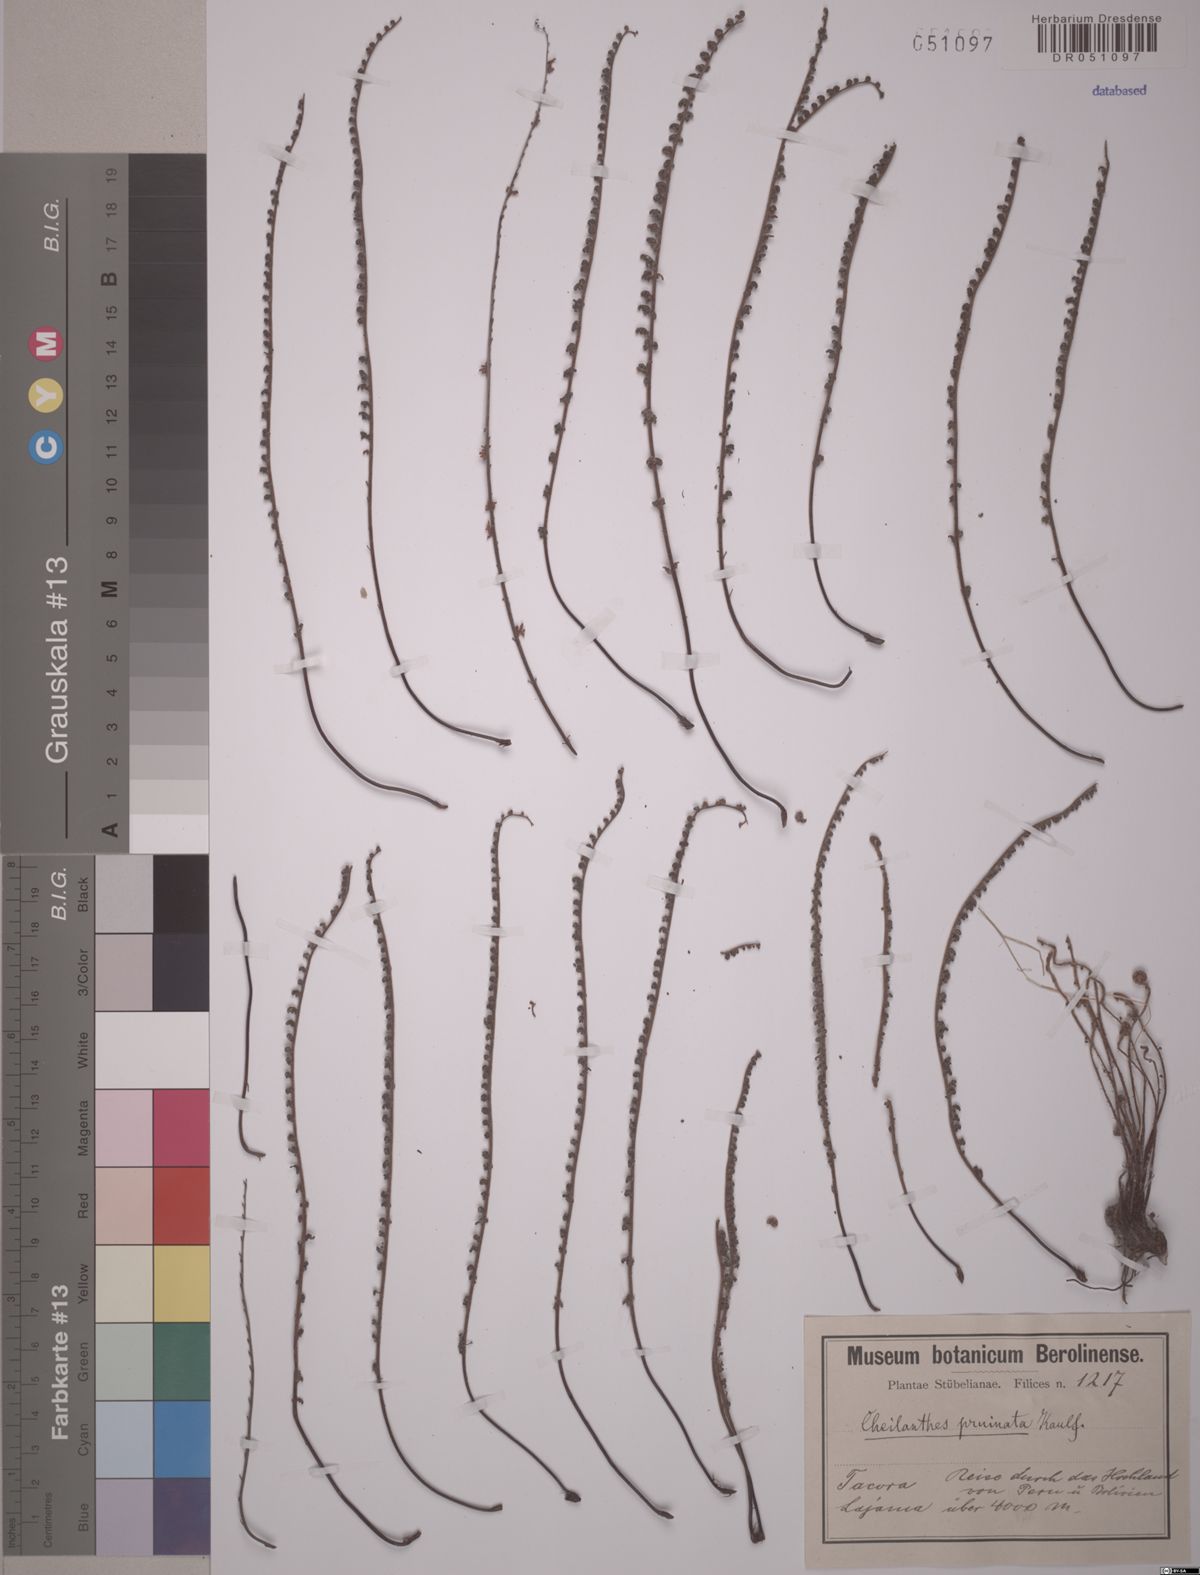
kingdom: Plantae
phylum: Tracheophyta
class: Polypodiopsida
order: Polypodiales
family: Pteridaceae
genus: Cheilanthes
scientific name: Cheilanthes pruinata
